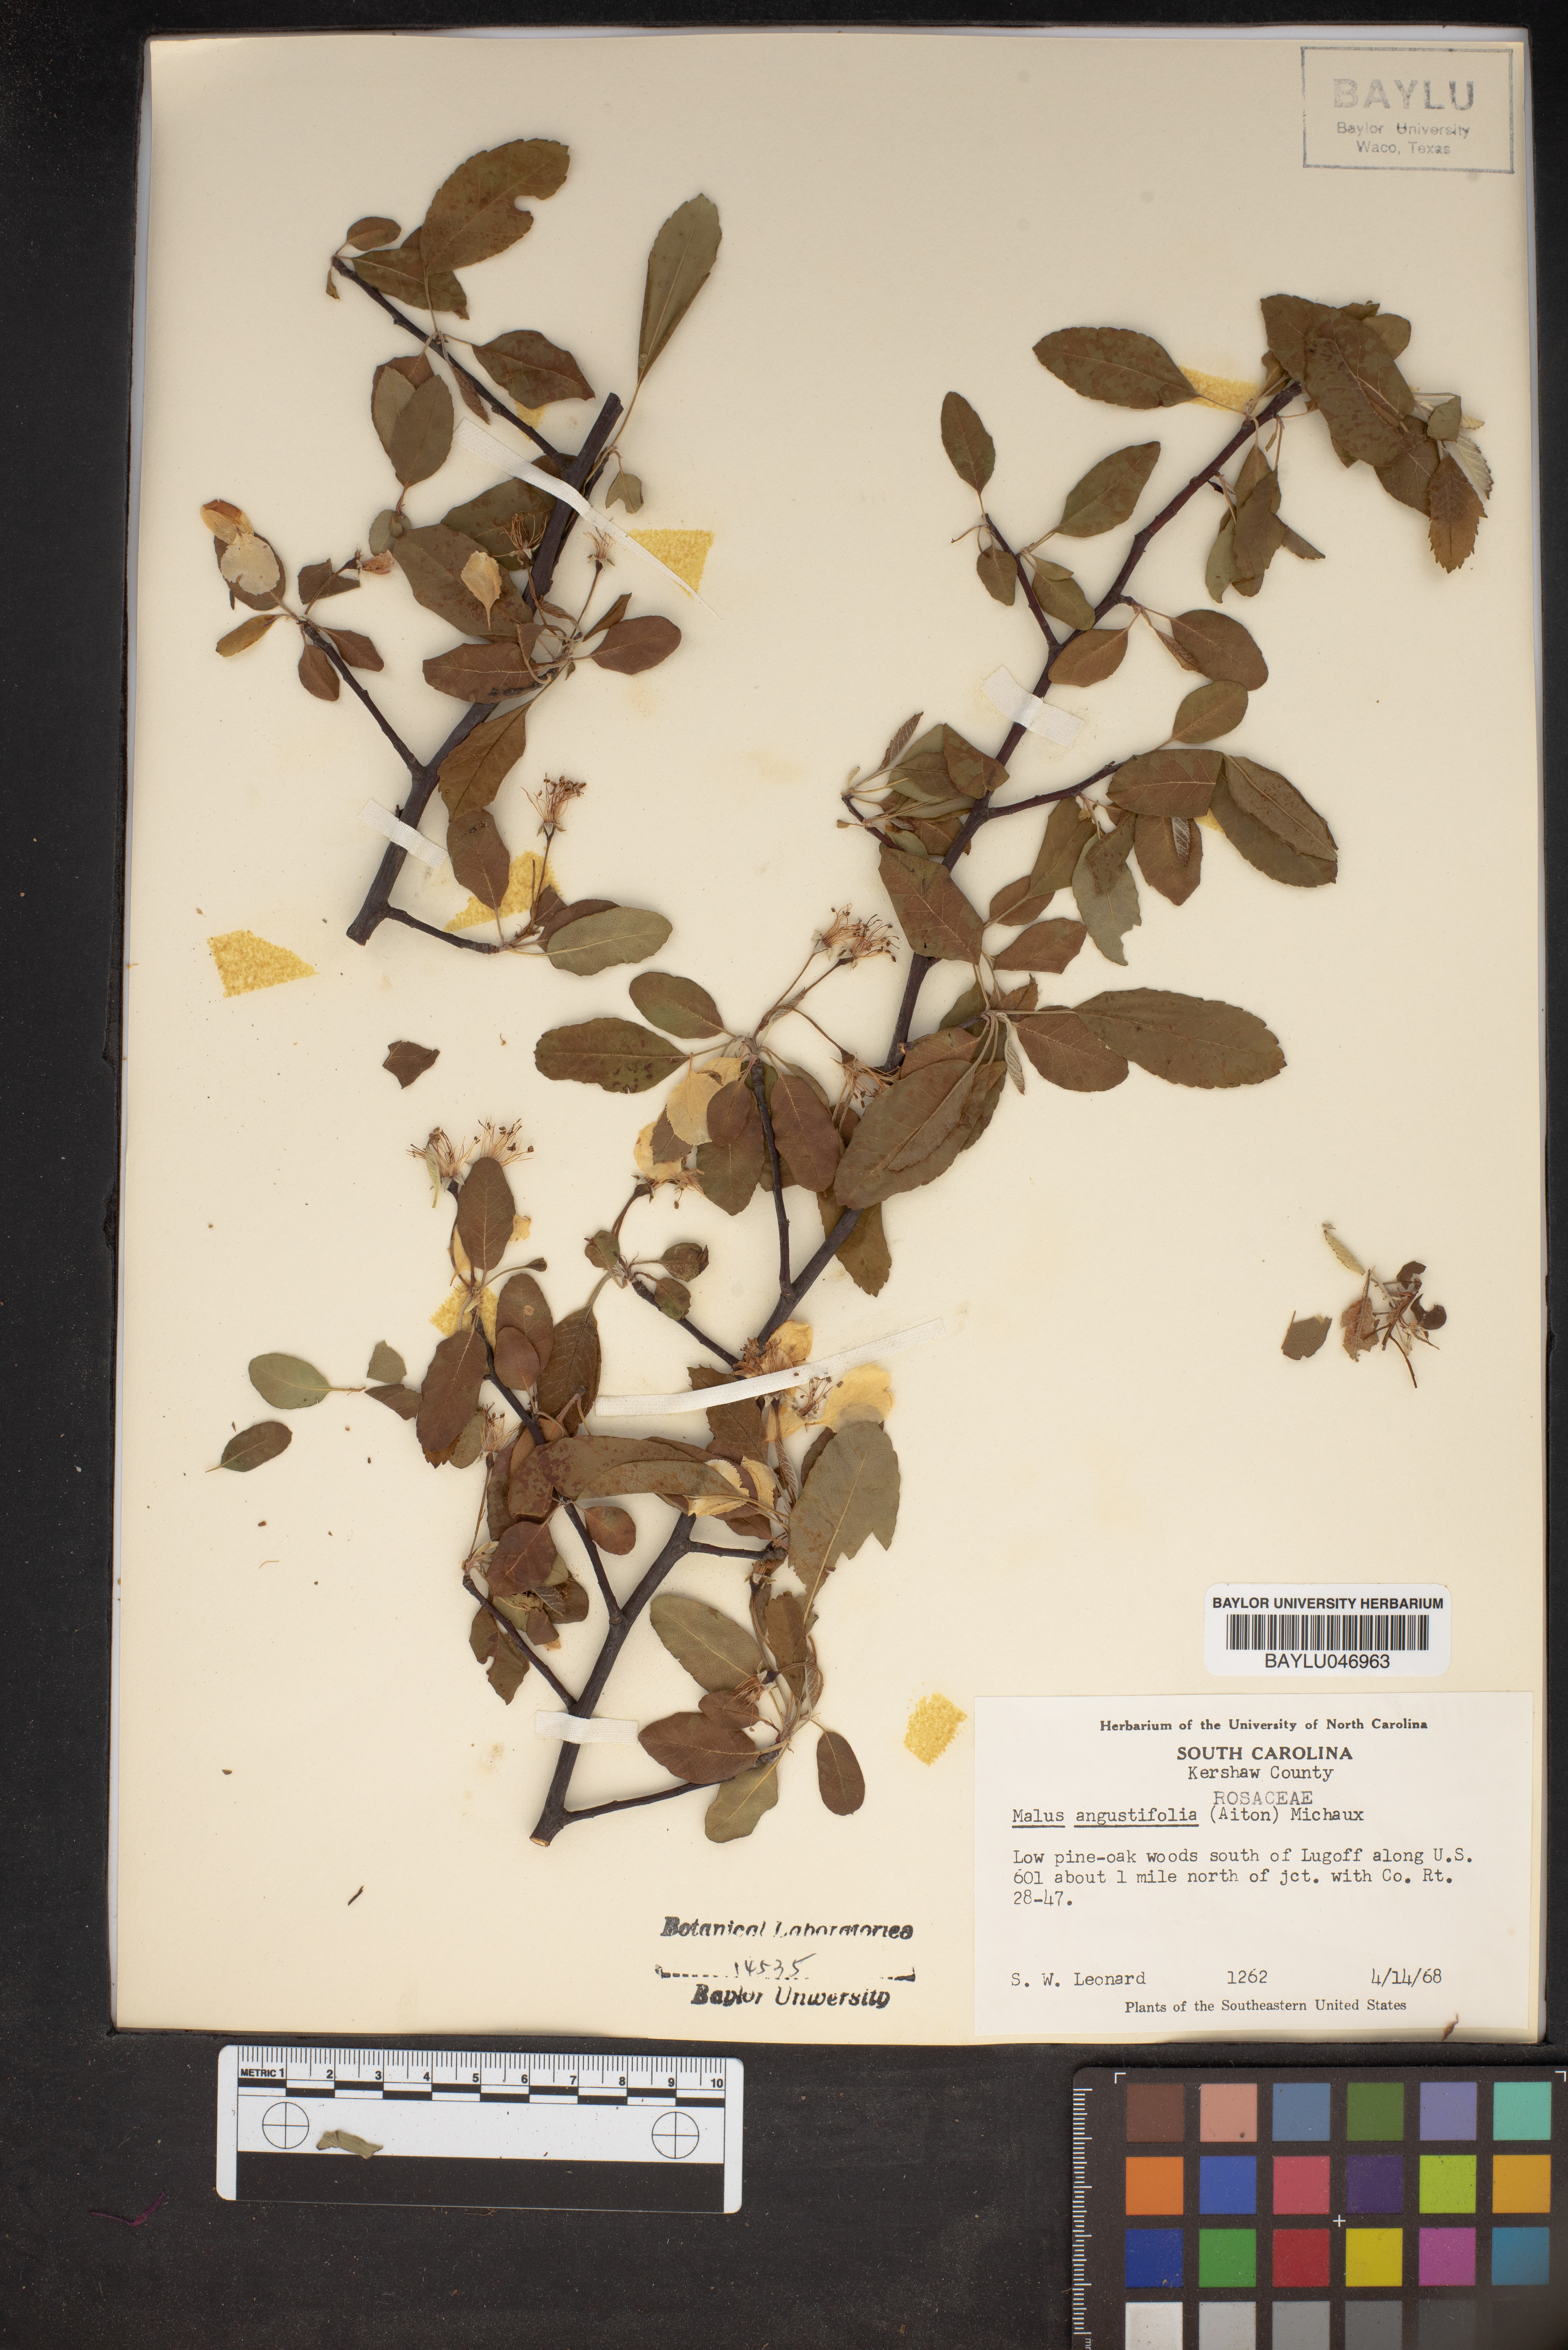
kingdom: Plantae
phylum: Tracheophyta
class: Magnoliopsida
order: Rosales
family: Rosaceae
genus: Malus
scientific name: Malus angustifolia
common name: Southern crab apple
